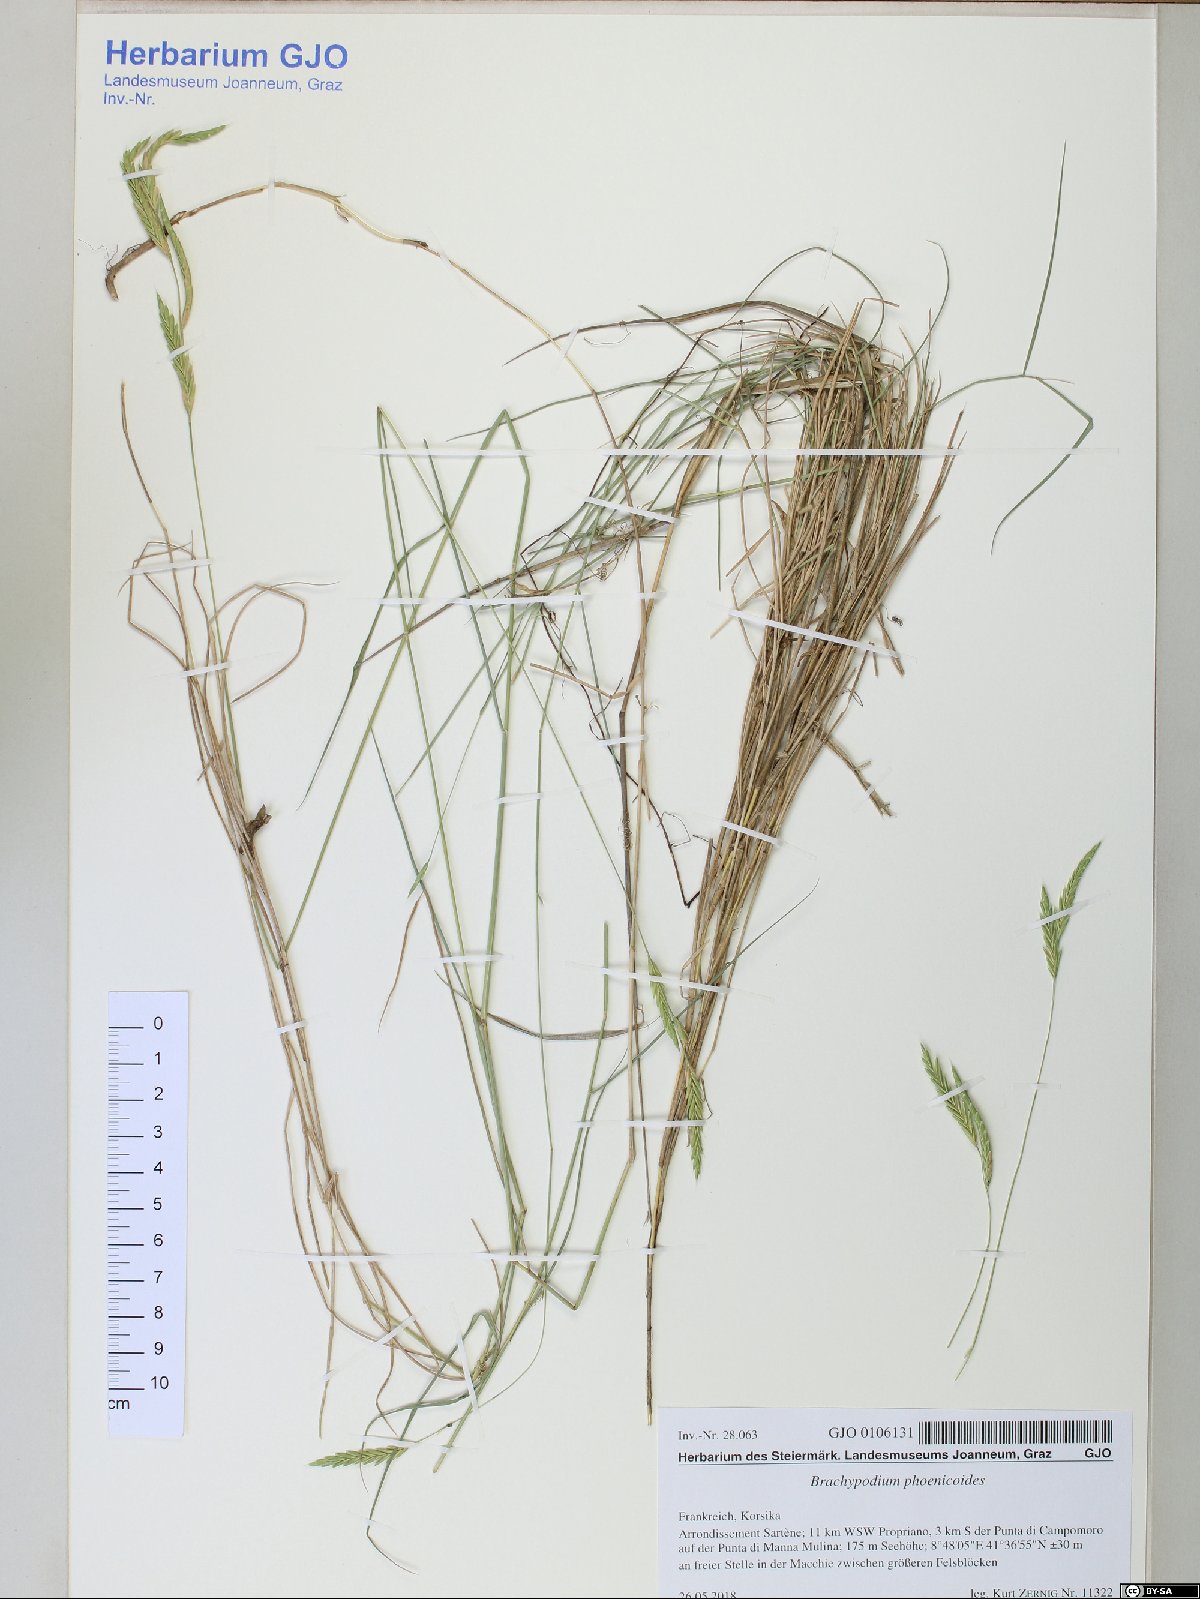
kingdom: Plantae
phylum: Tracheophyta
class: Liliopsida
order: Poales
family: Poaceae
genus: Brachypodium
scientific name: Brachypodium phoenicoides
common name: Thinleaf false brome
